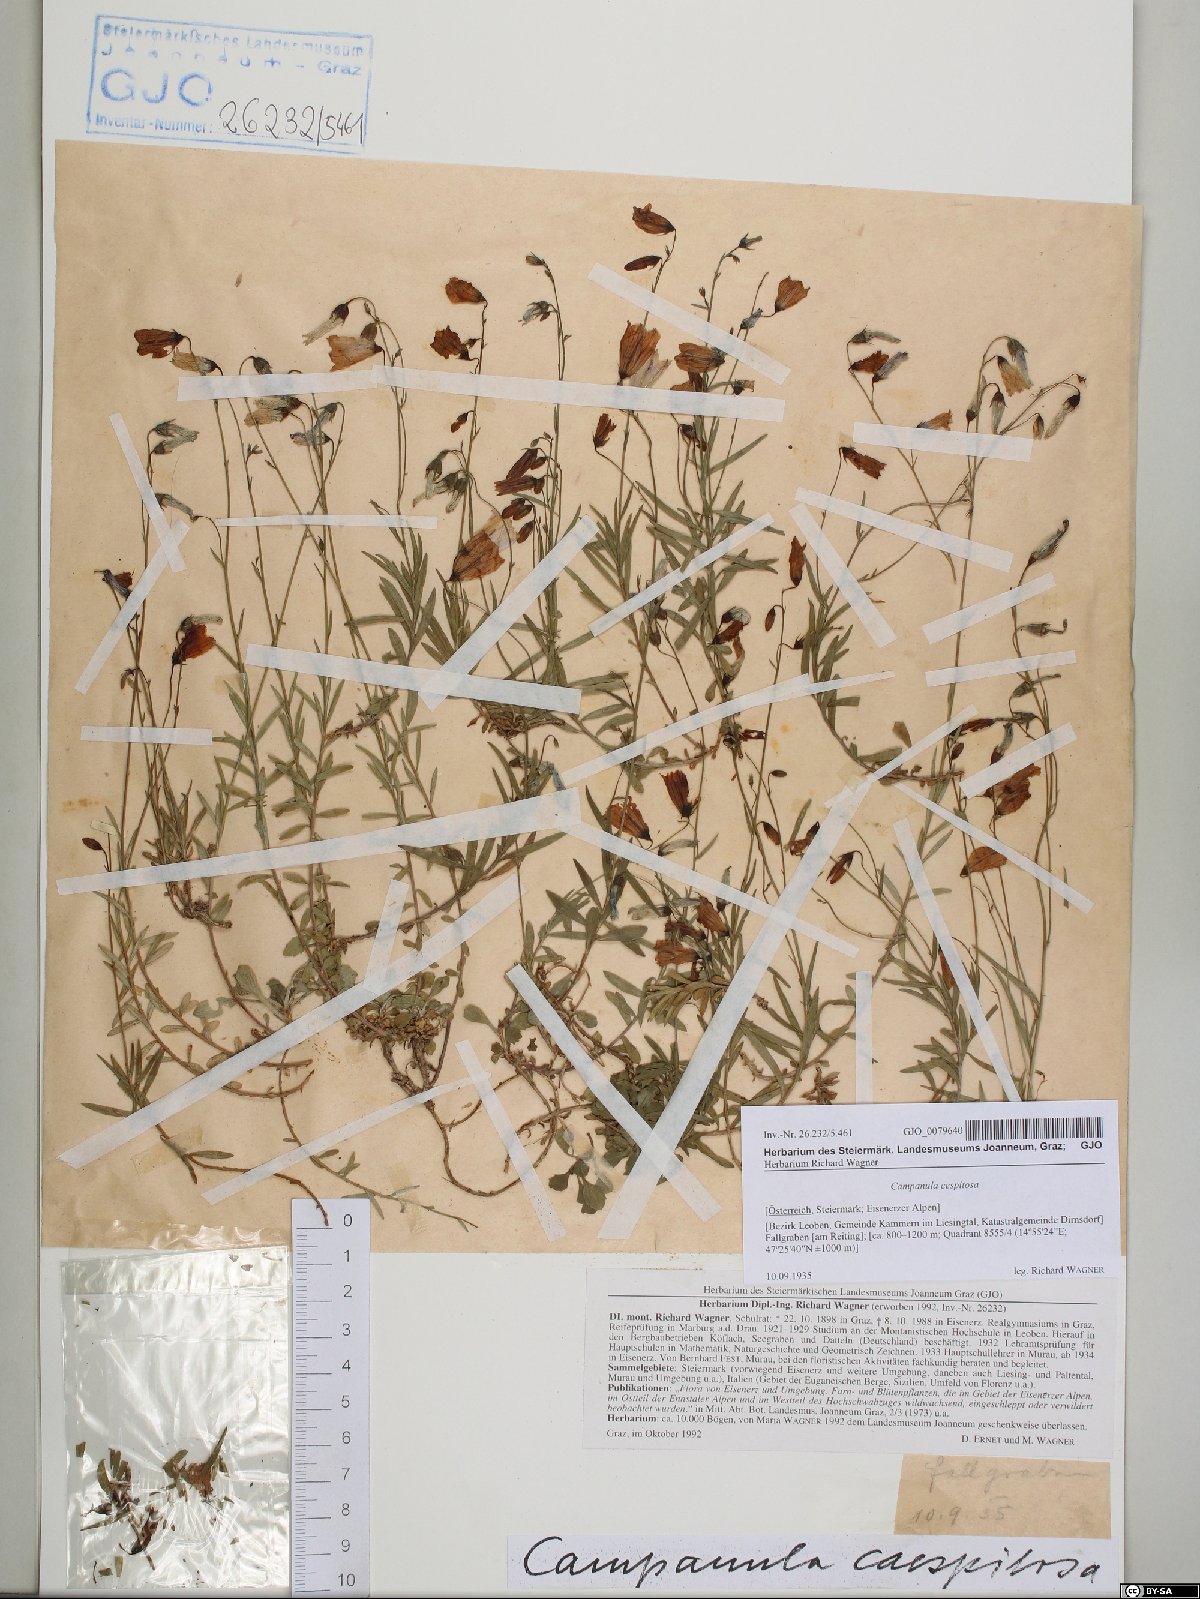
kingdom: Plantae
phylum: Tracheophyta
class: Magnoliopsida
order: Asterales
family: Campanulaceae
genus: Campanula
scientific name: Campanula cespitosa
